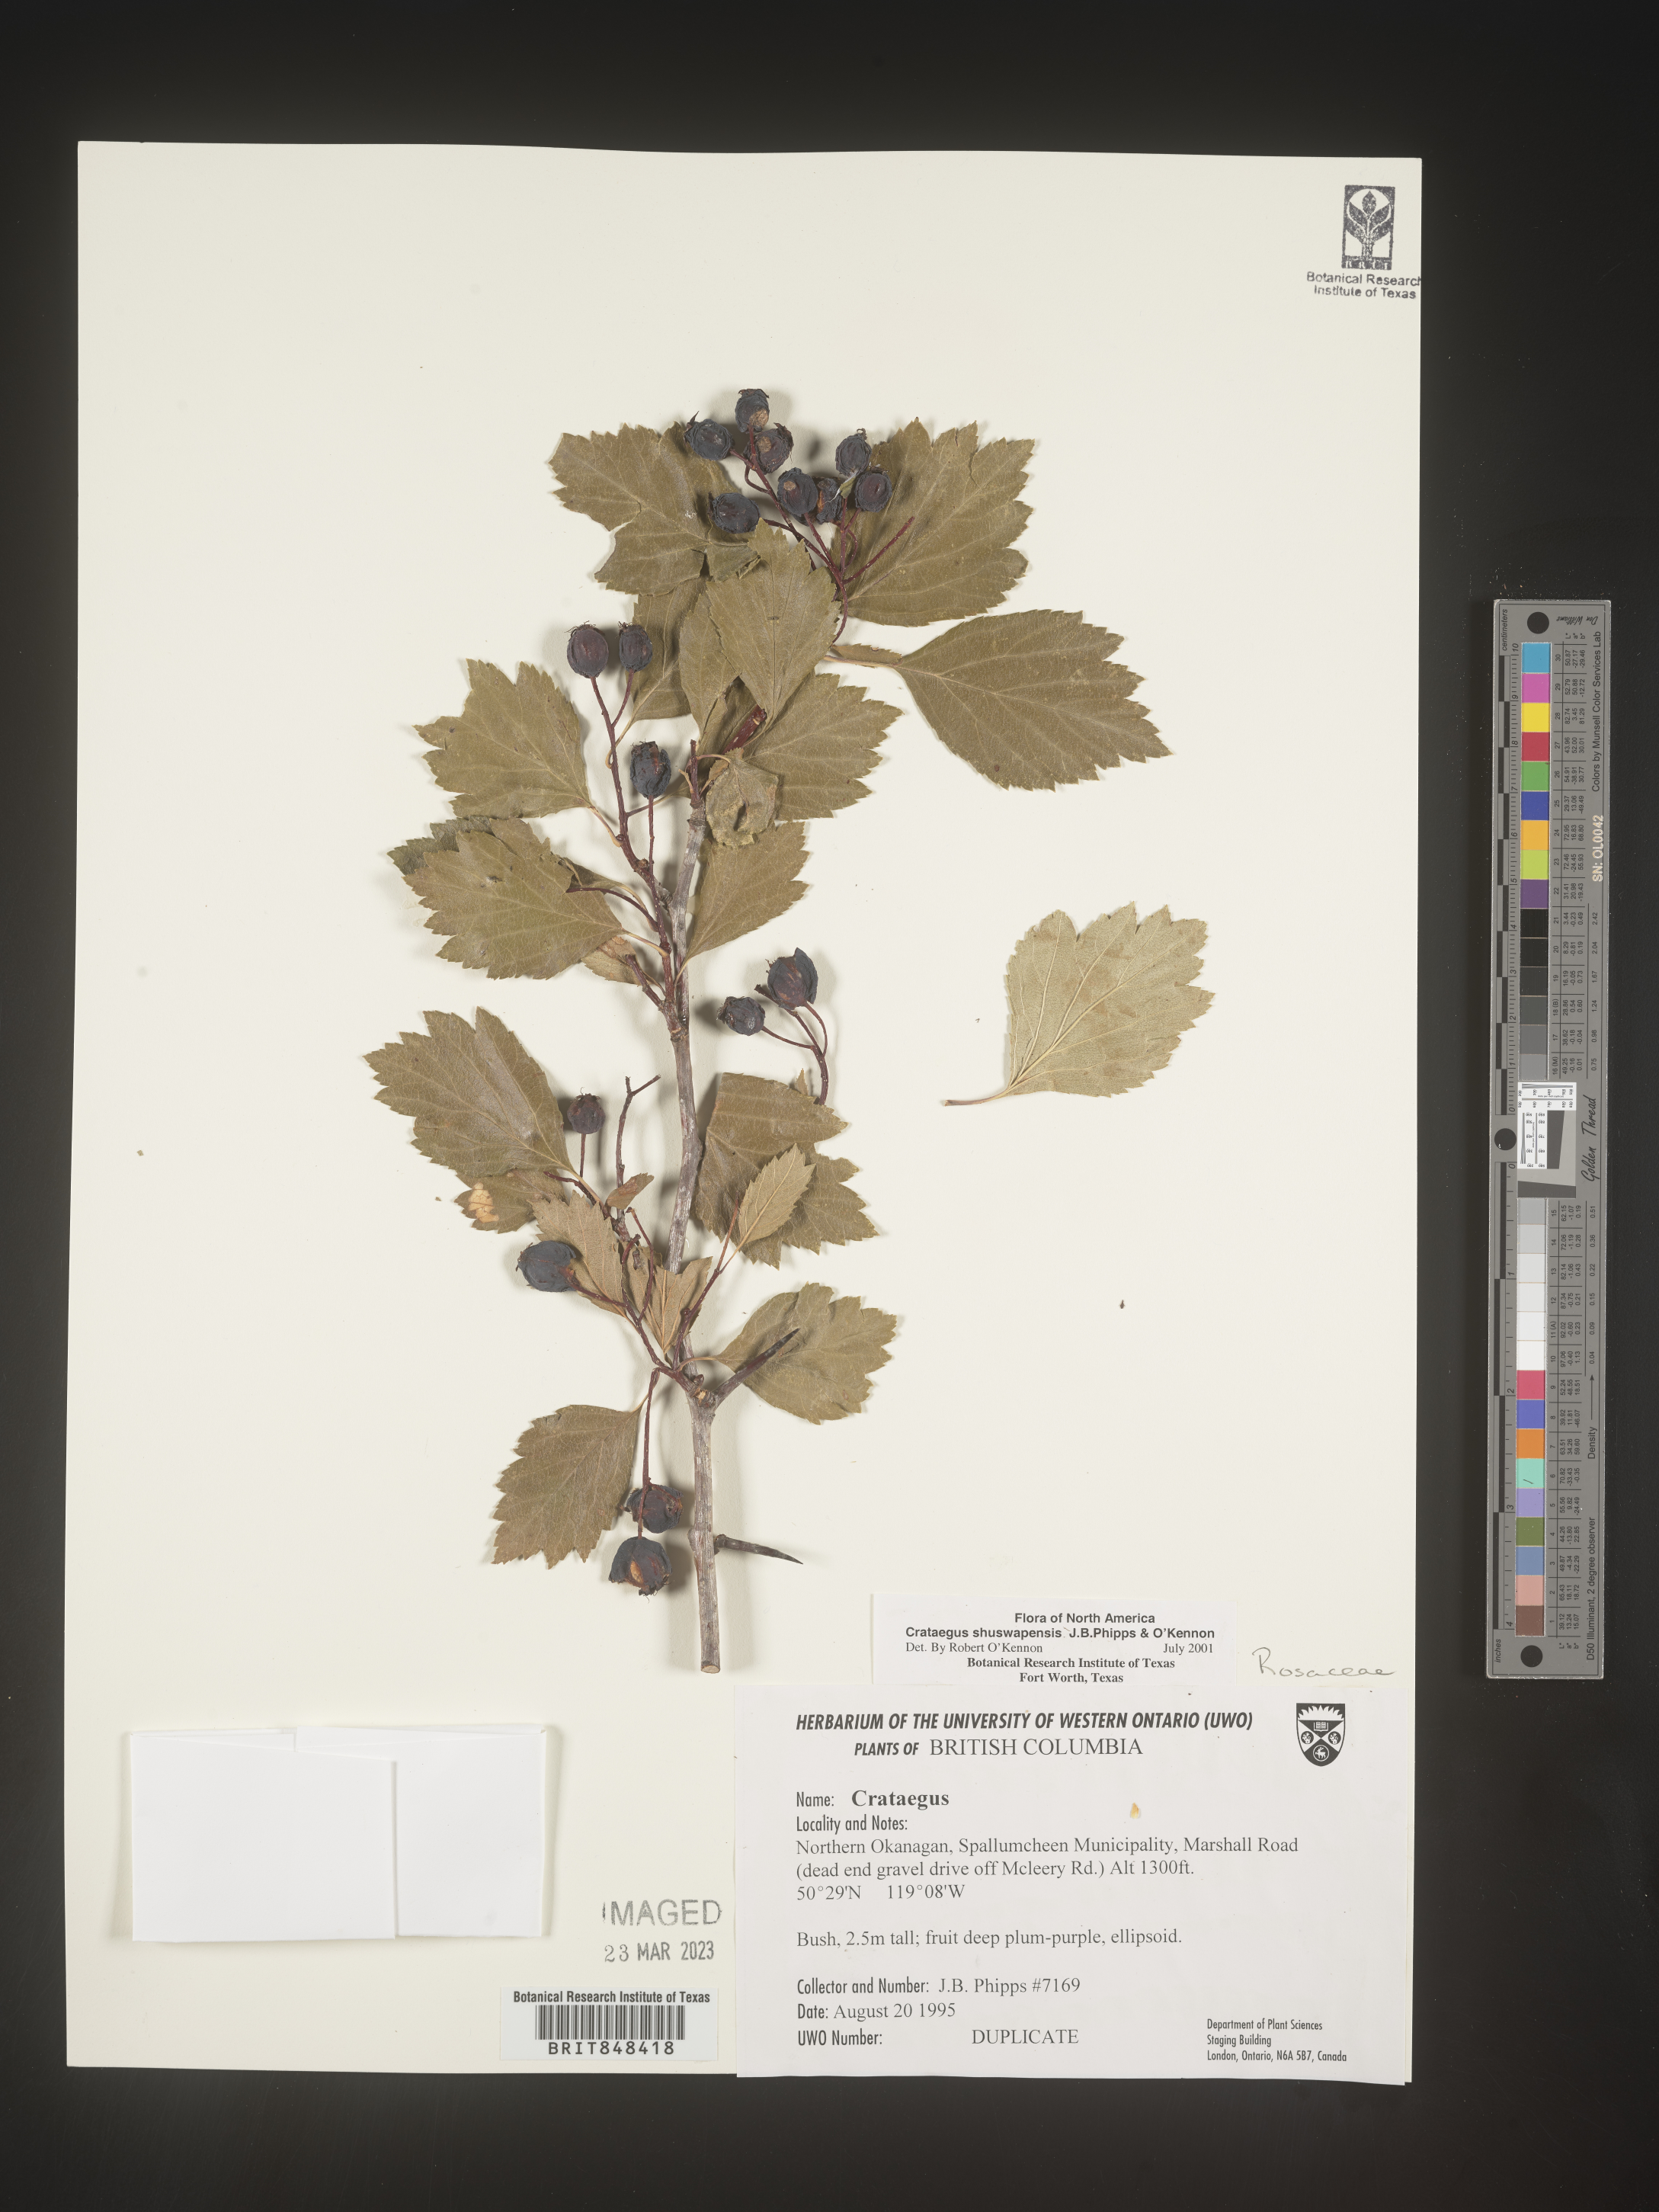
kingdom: Plantae
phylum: Tracheophyta
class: Magnoliopsida
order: Rosales
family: Rosaceae
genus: Crataegus
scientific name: Crataegus shuswapensis
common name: Shuswap hawthorn
